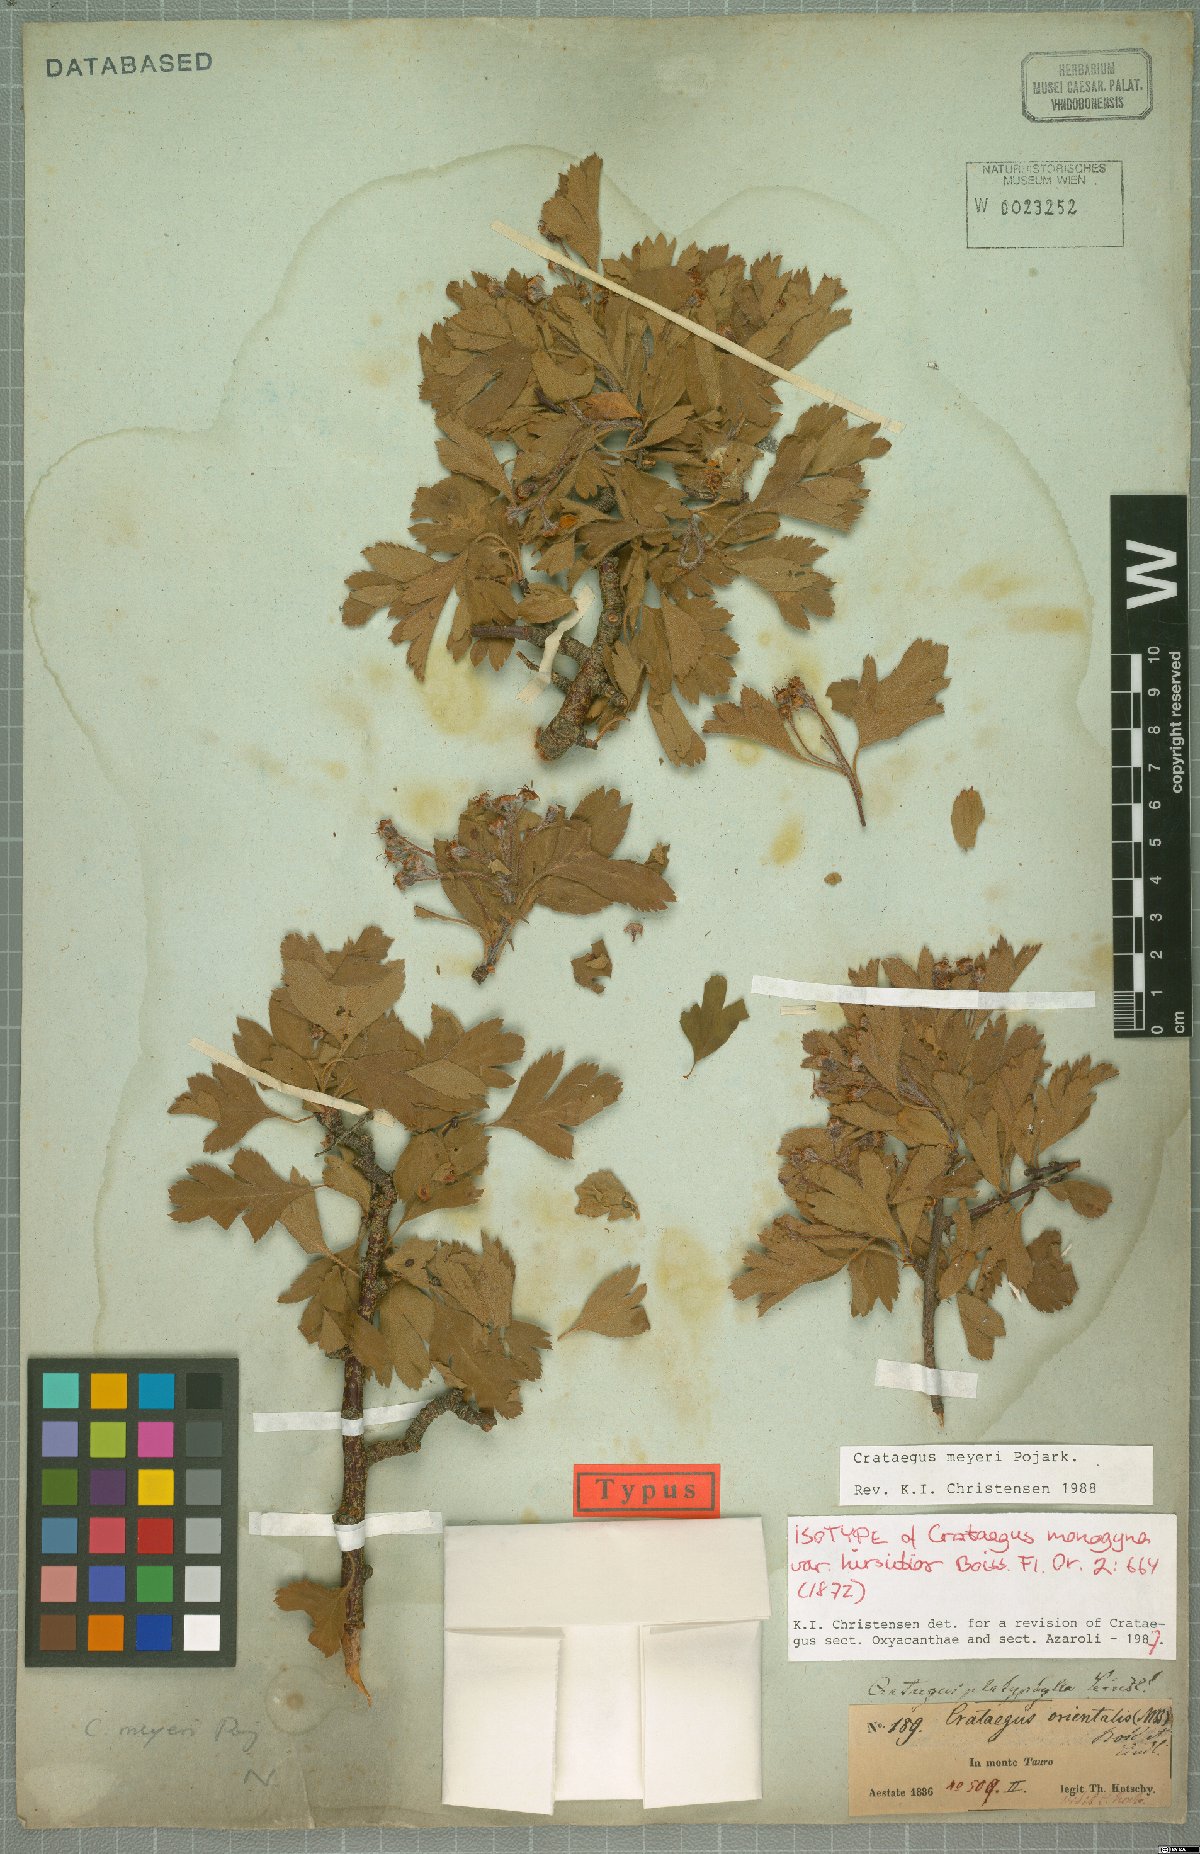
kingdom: Plantae
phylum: Tracheophyta
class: Magnoliopsida
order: Rosales
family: Rosaceae
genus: Crataegus
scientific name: Crataegus meyeri
